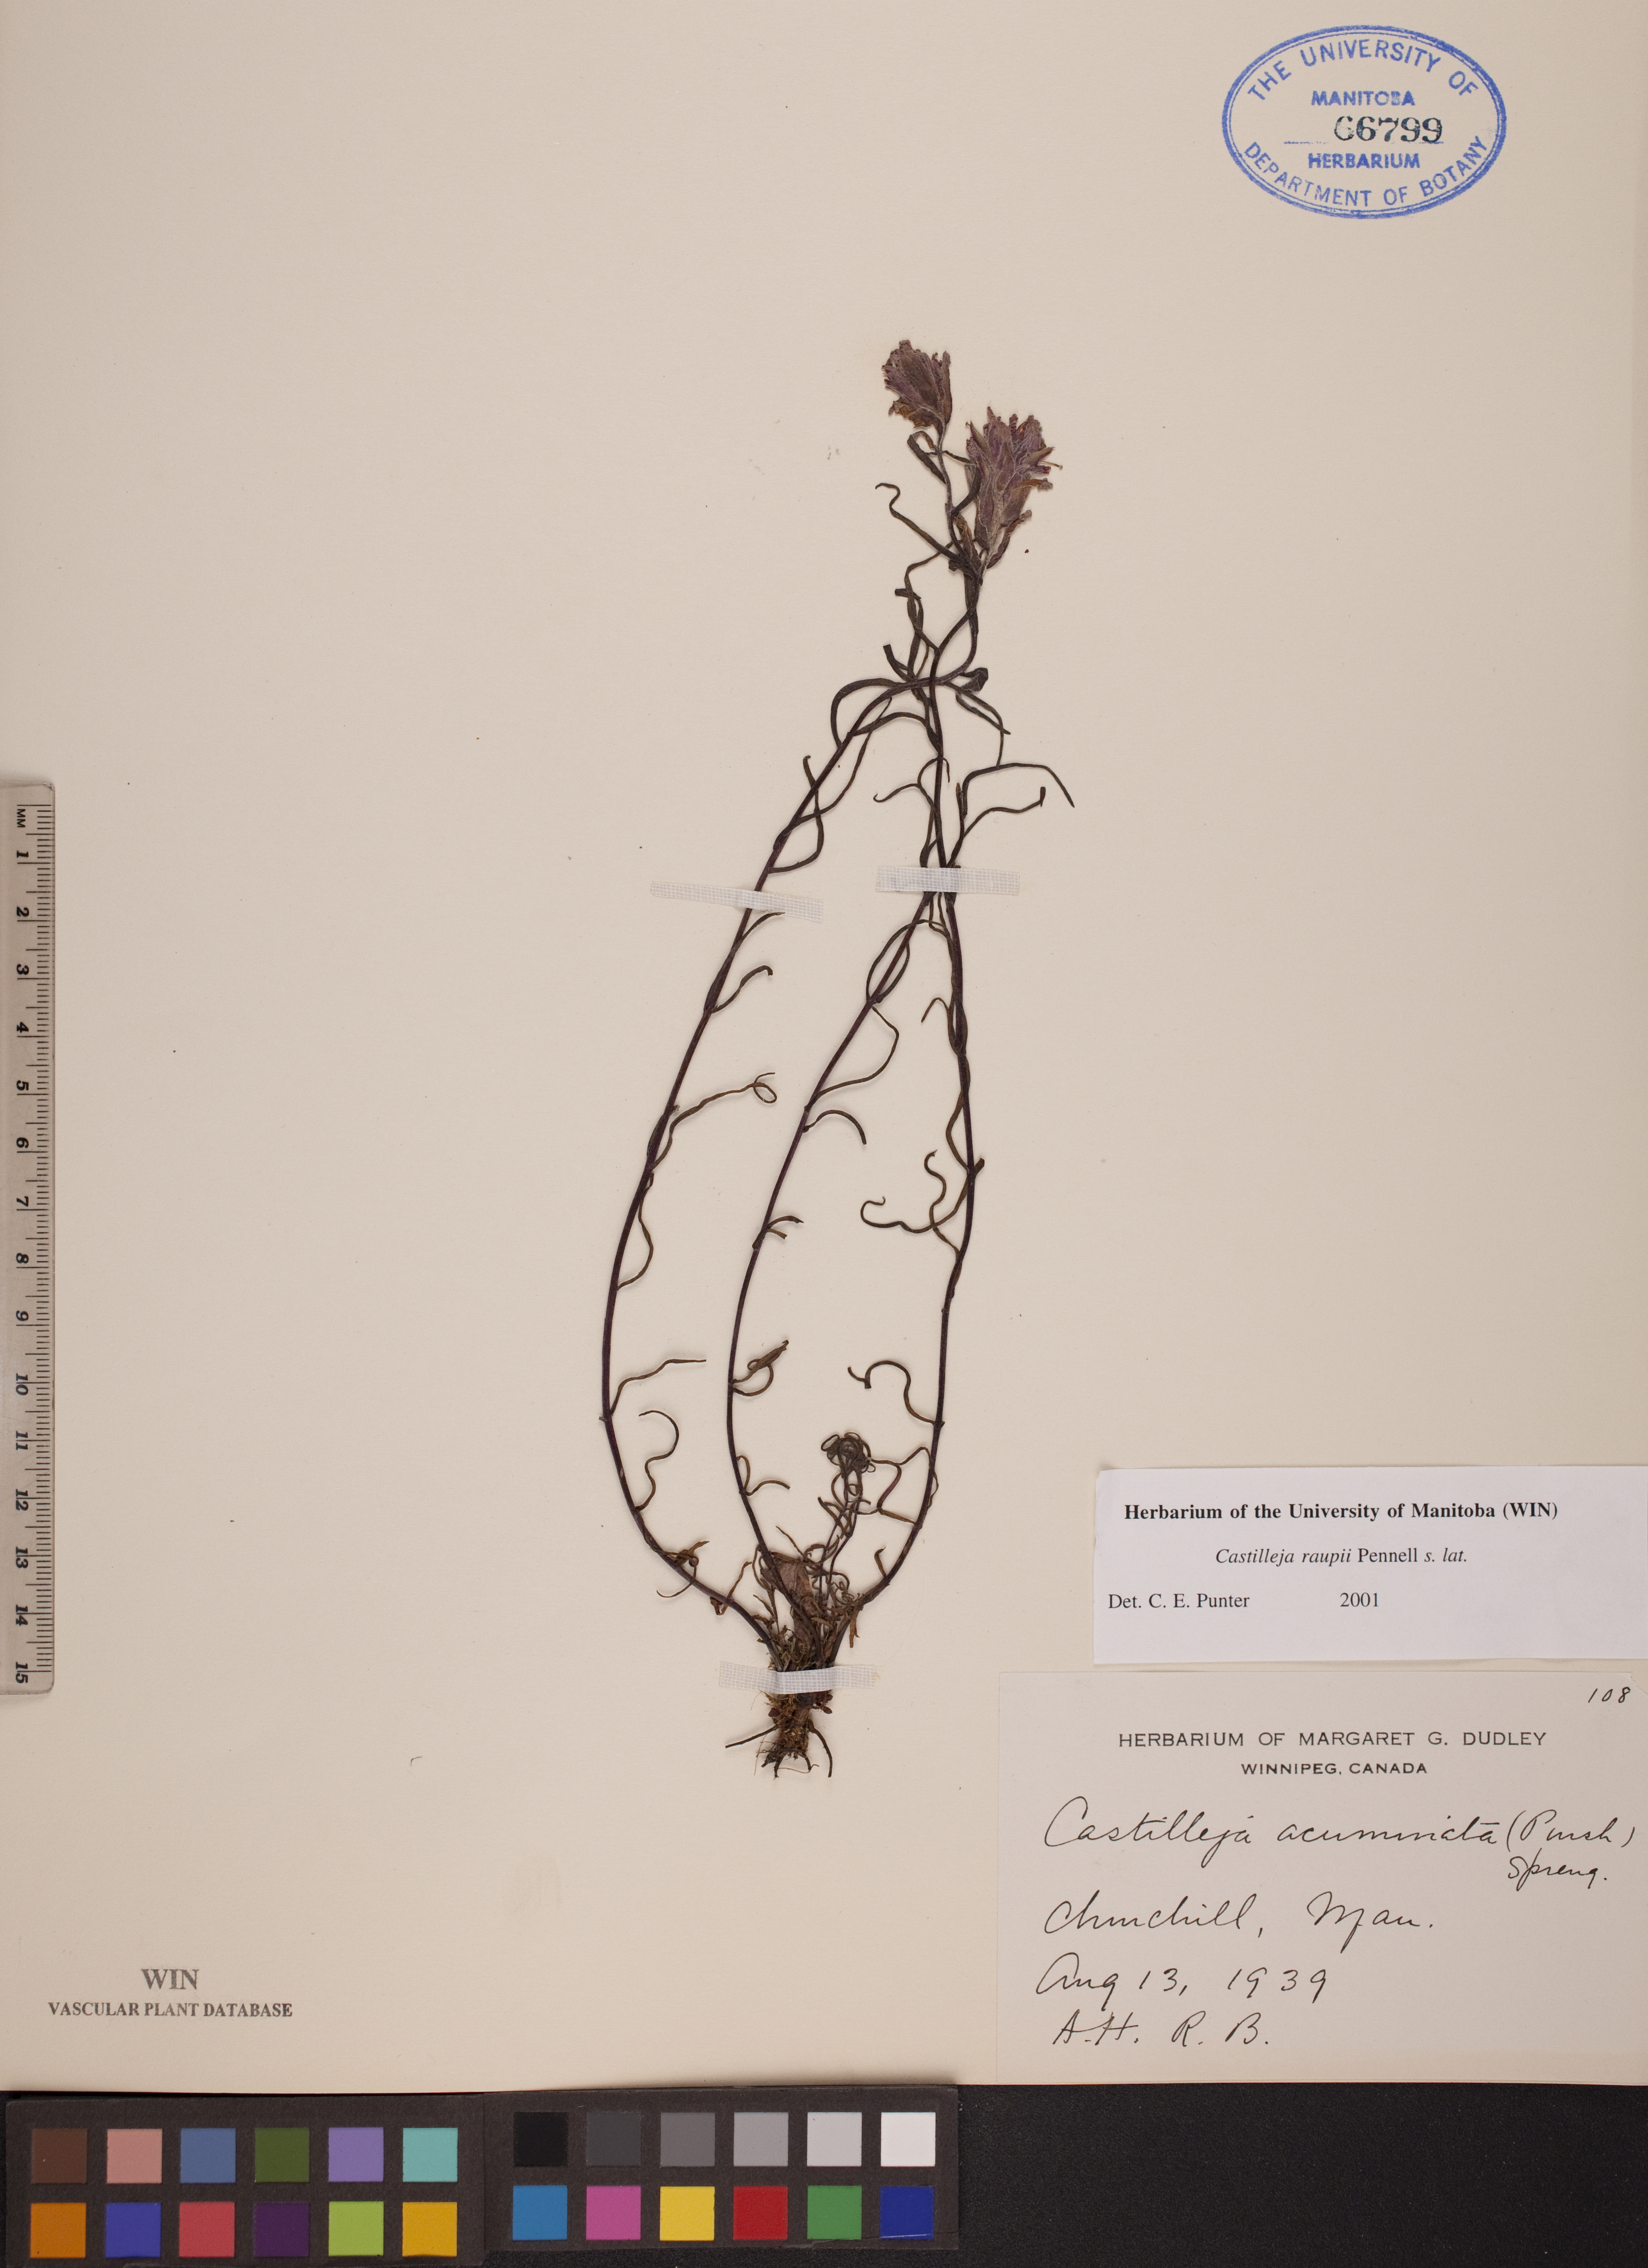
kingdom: Plantae
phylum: Tracheophyta
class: Magnoliopsida
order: Lamiales
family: Orobanchaceae
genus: Castilleja
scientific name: Castilleja raupii
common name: Raup's paintbrush
